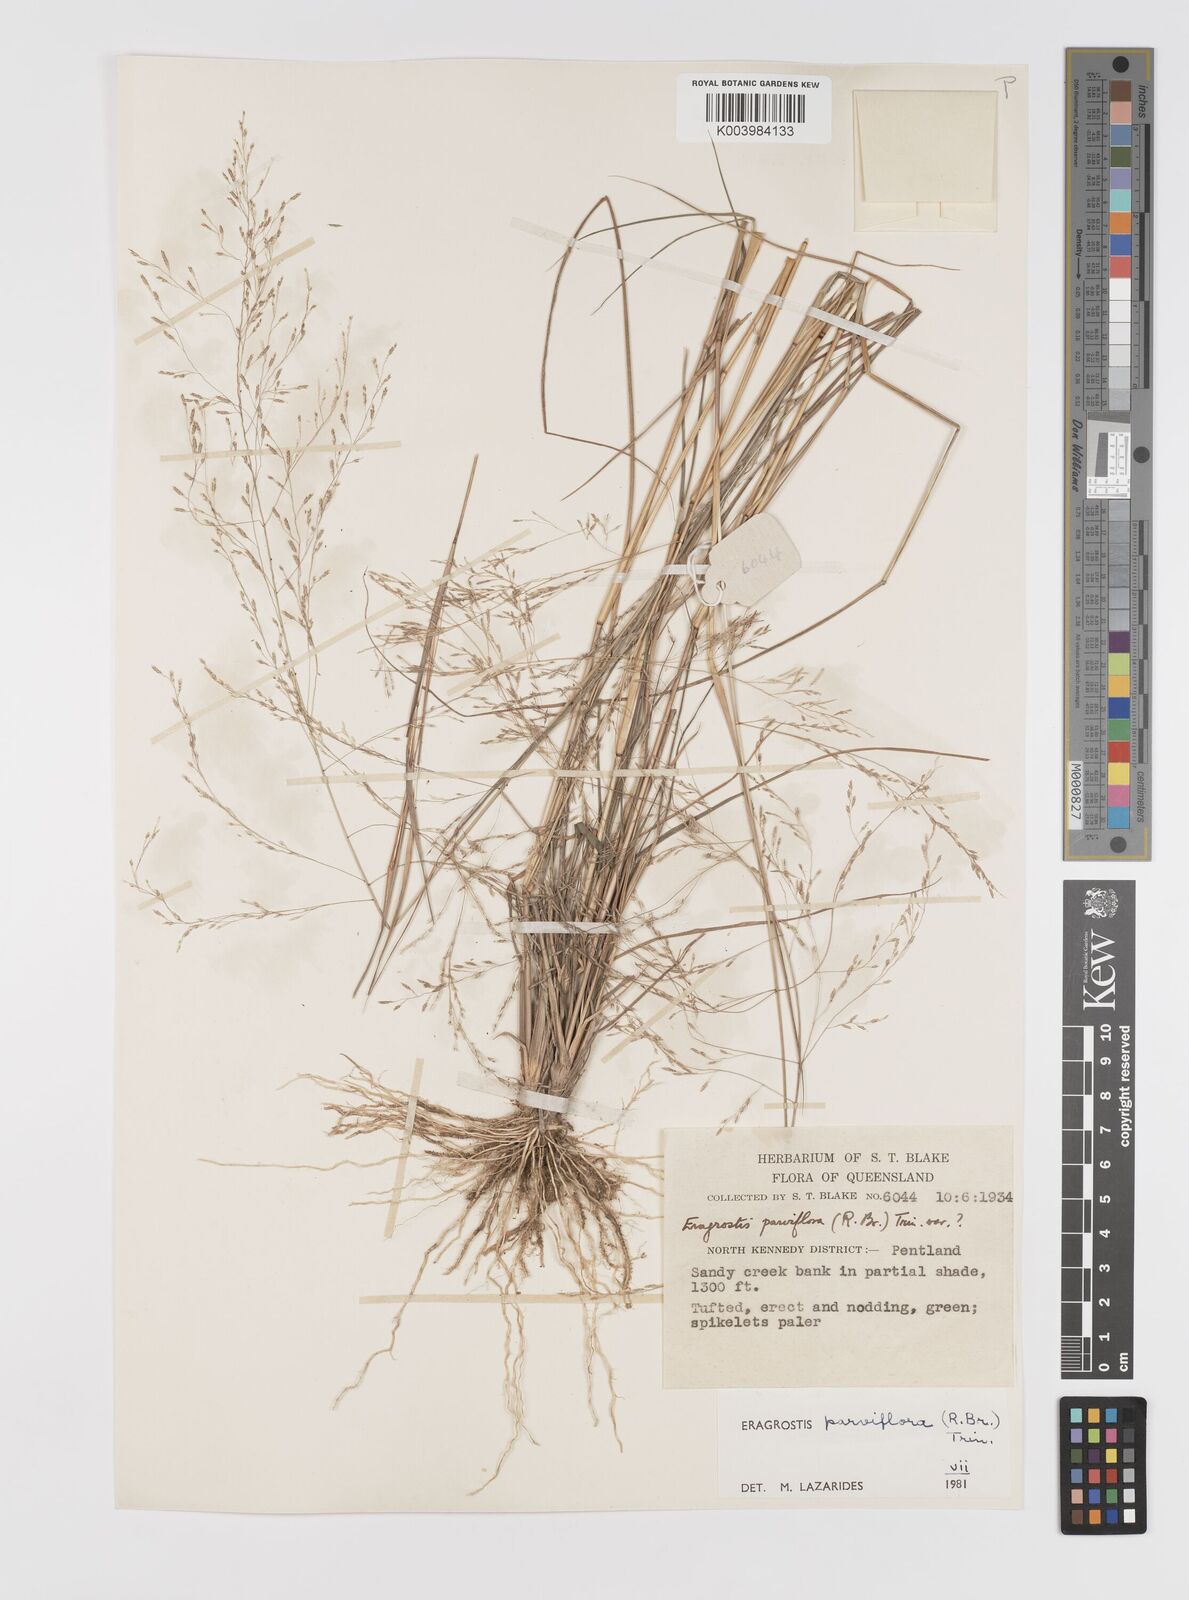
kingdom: Plantae
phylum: Tracheophyta
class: Liliopsida
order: Poales
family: Poaceae
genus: Eragrostis
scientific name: Eragrostis parviflora
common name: Weeping love-grass
